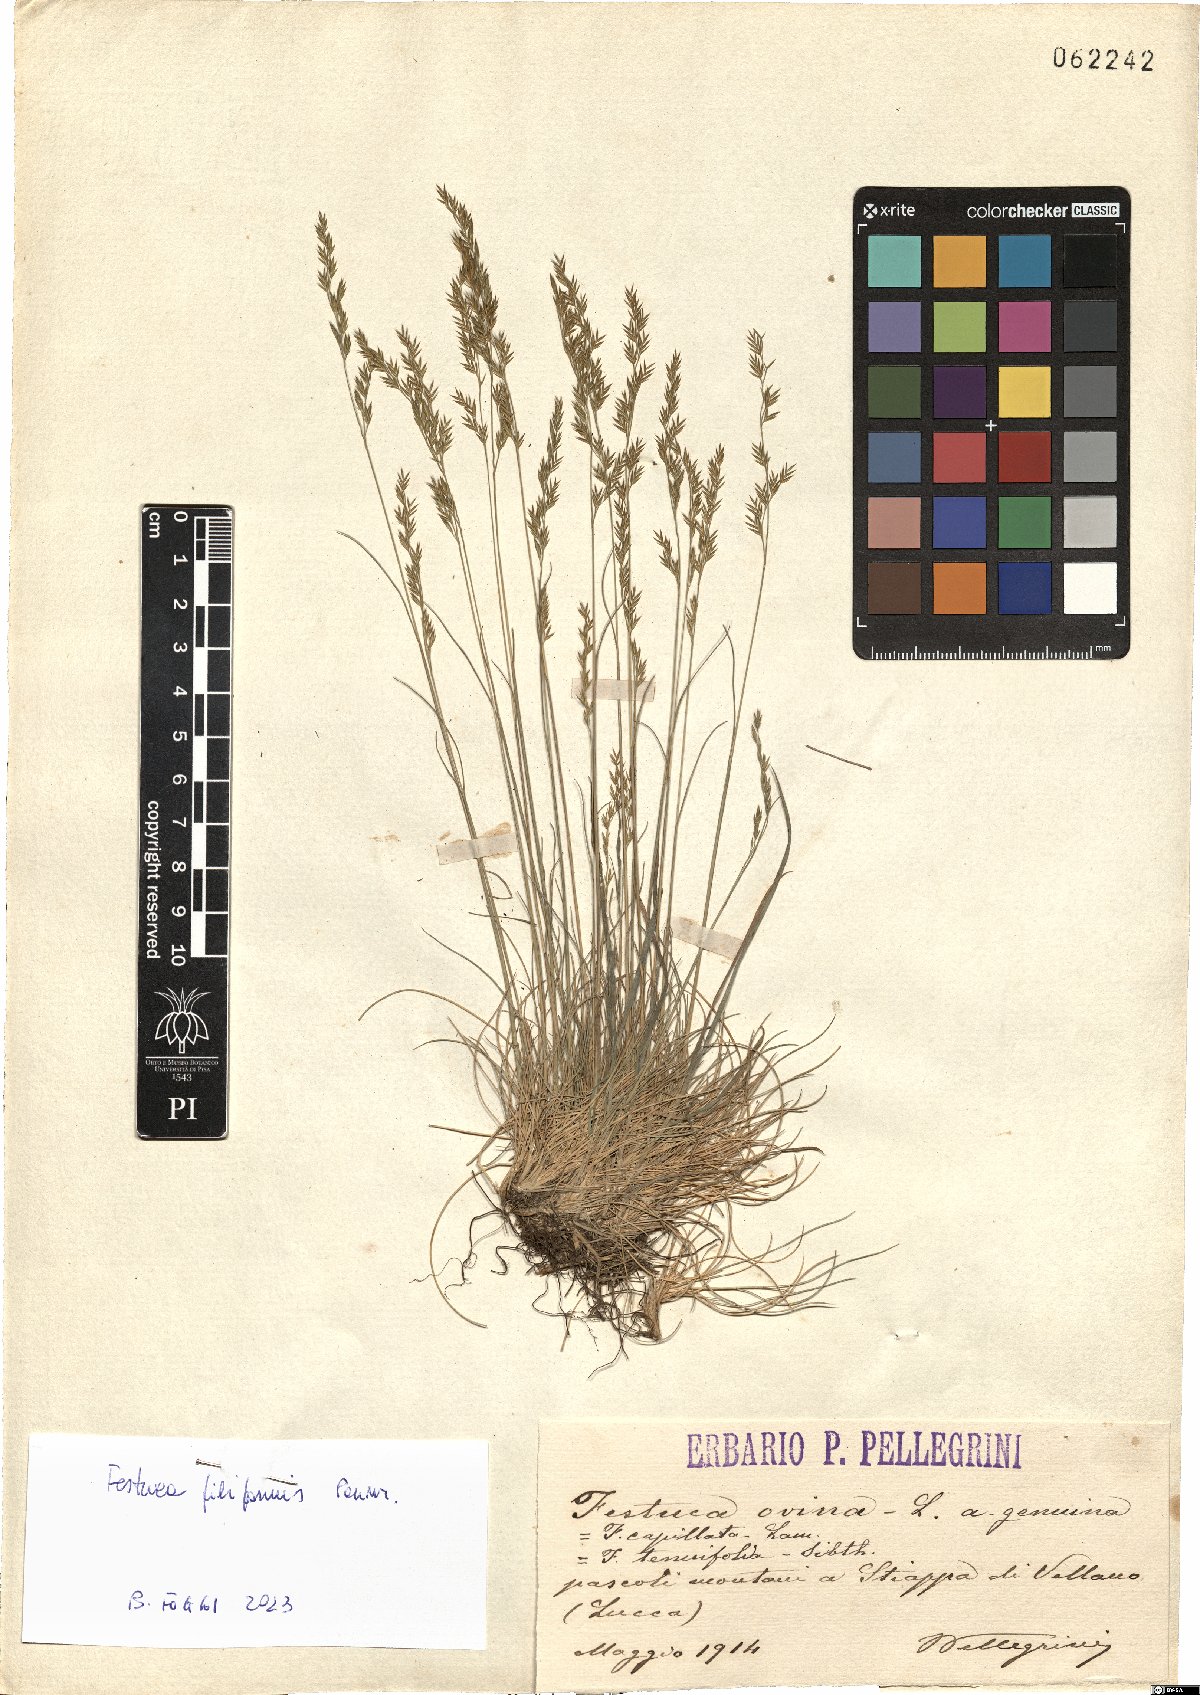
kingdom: Plantae
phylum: Tracheophyta
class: Liliopsida
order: Poales
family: Poaceae
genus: Festuca
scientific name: Festuca laevigata
